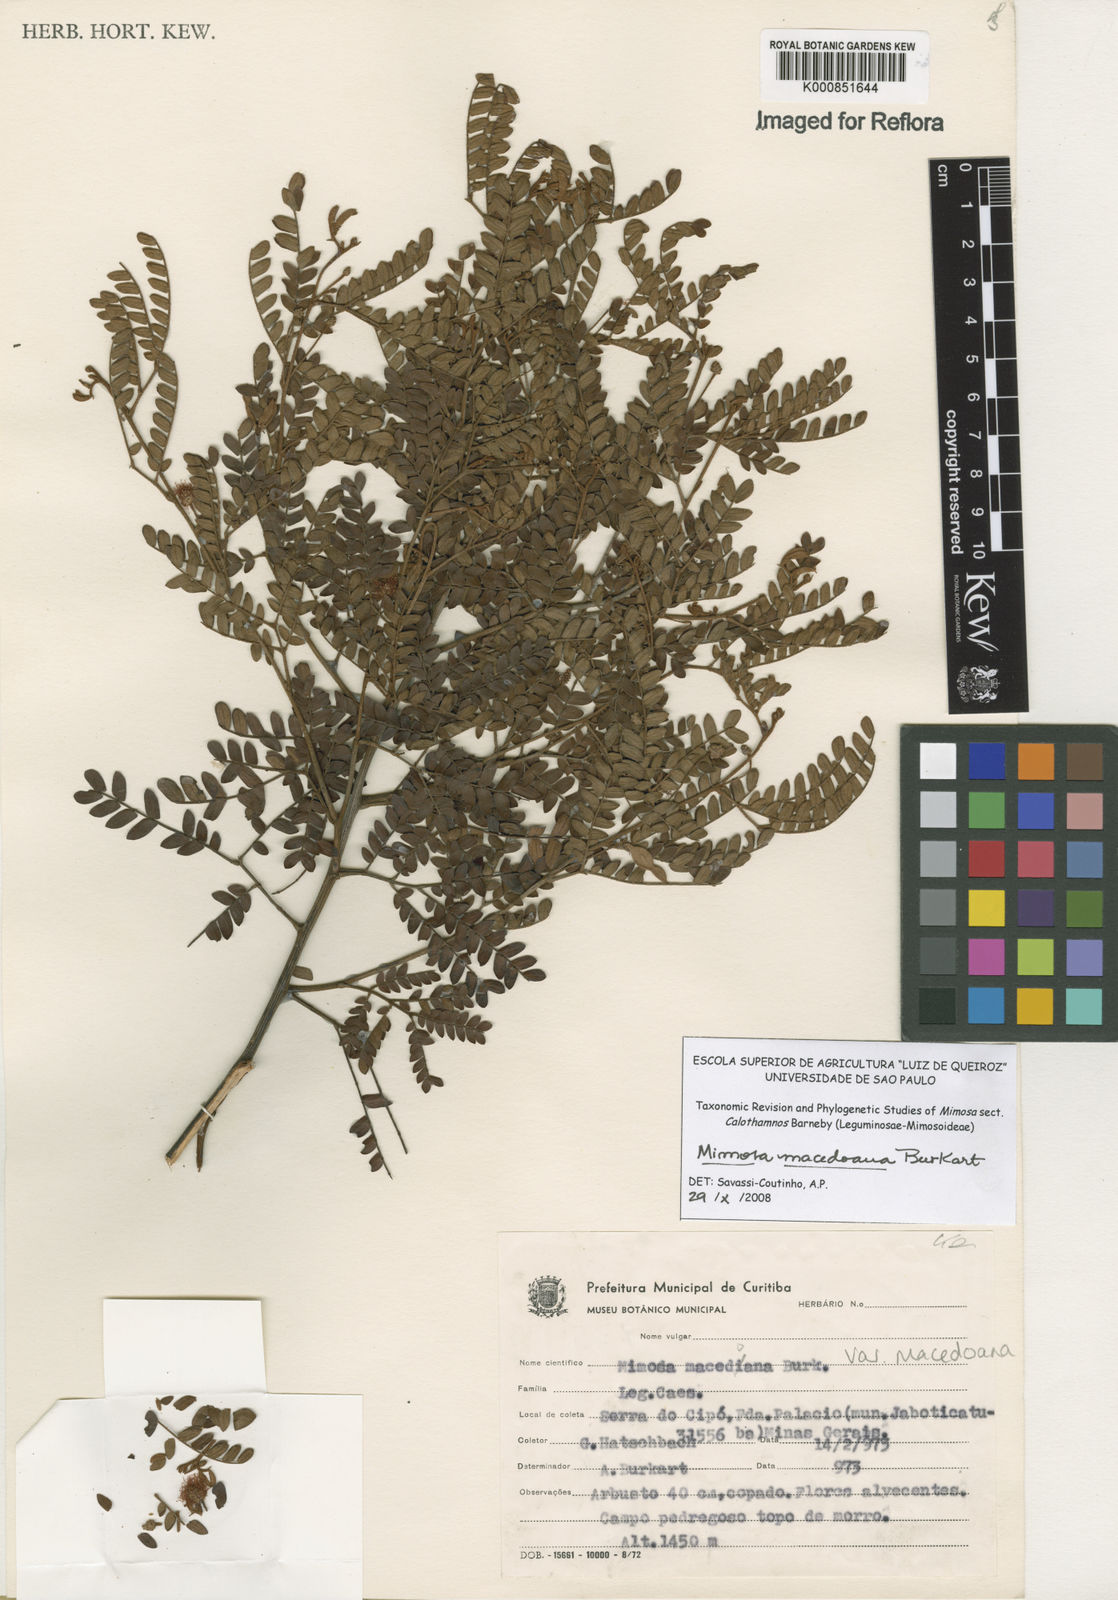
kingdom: Plantae
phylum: Tracheophyta
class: Magnoliopsida
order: Fabales
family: Fabaceae
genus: Mimosa
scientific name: Mimosa macedoana
